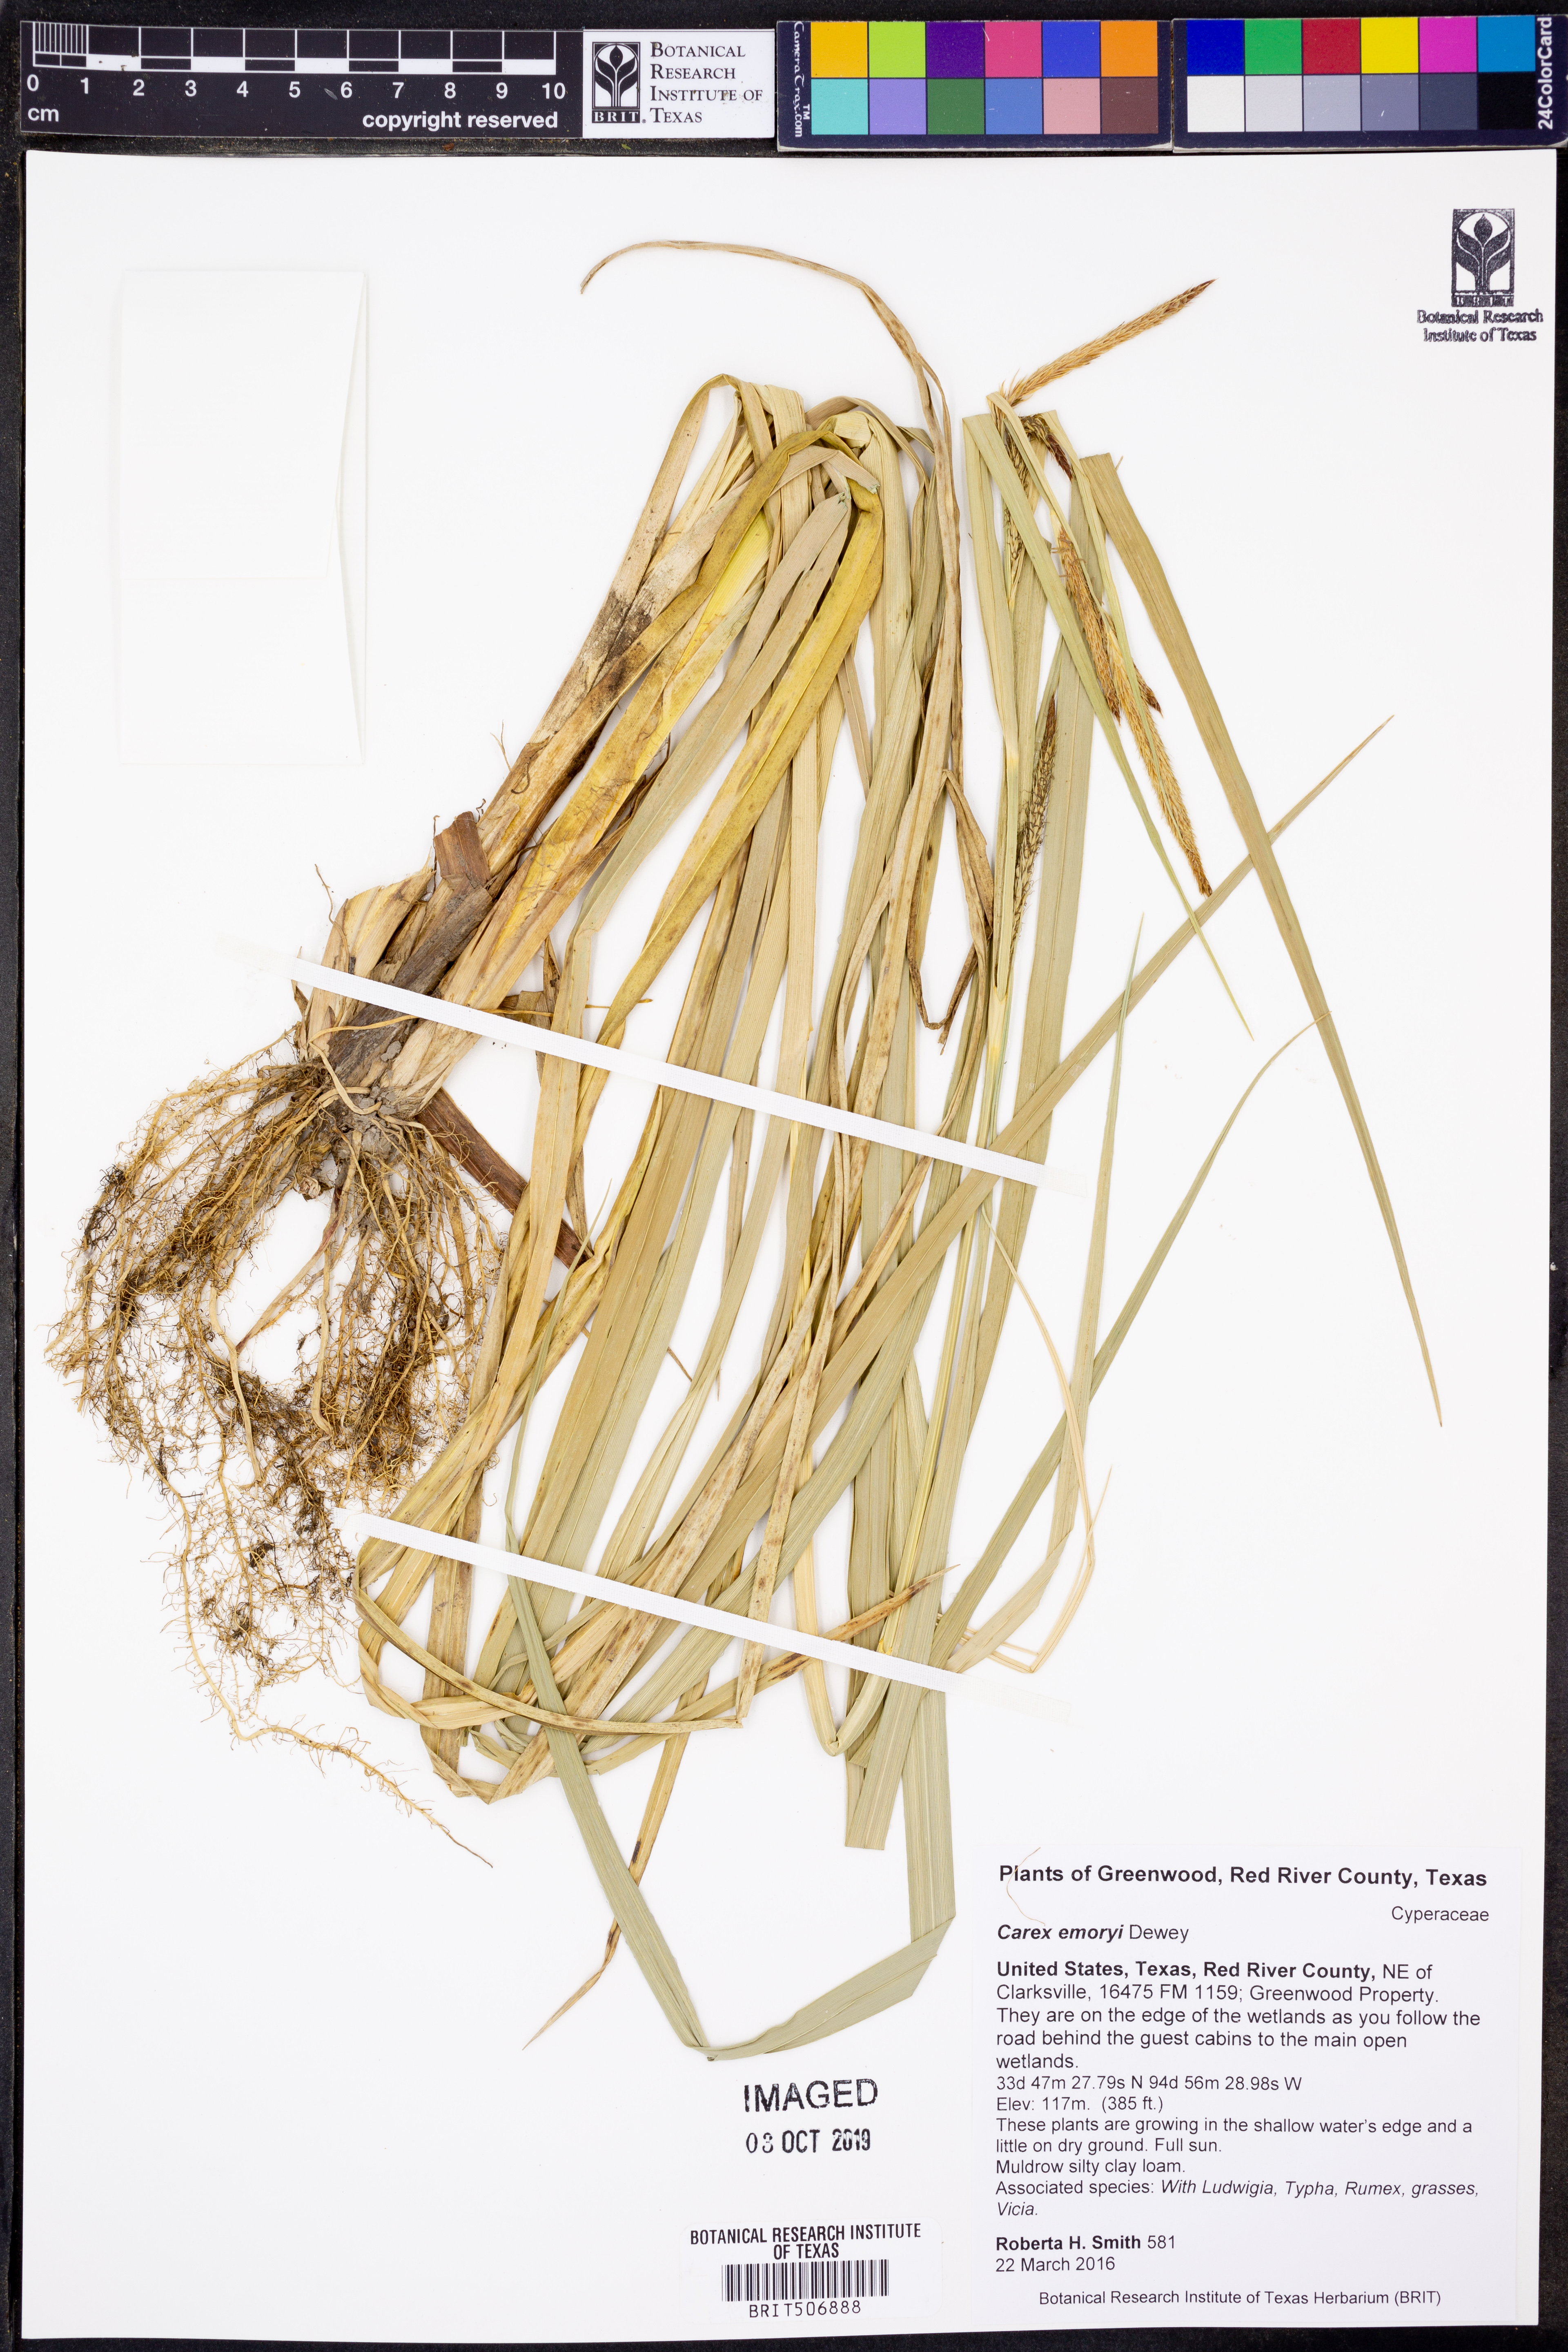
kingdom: Plantae
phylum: Tracheophyta
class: Liliopsida
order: Poales
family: Cyperaceae
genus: Carex
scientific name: Carex emoryi
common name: Emory's sedge
